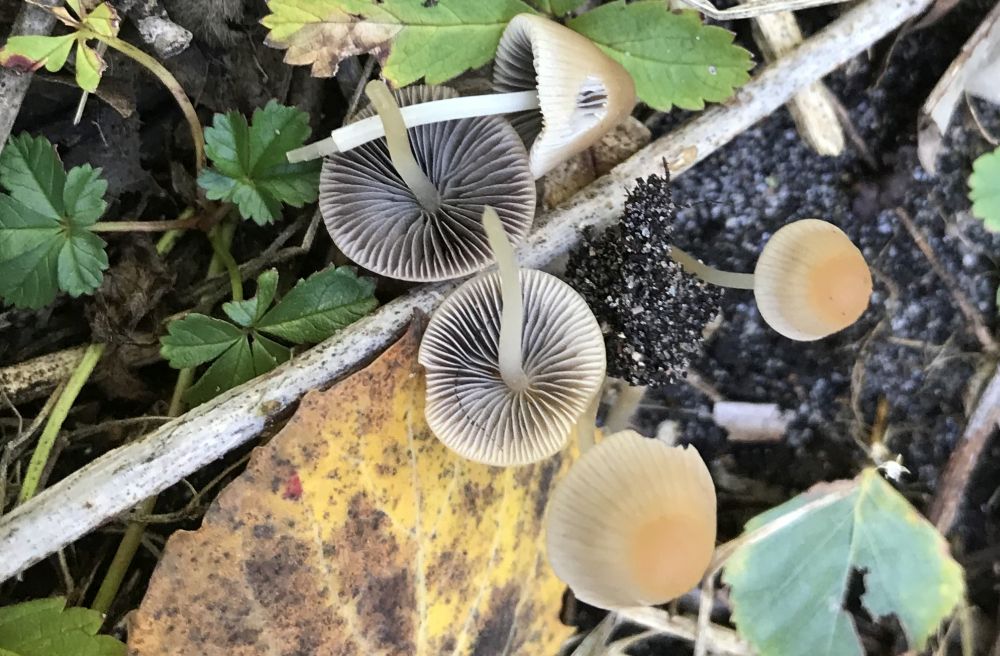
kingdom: Fungi
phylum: Basidiomycota
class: Agaricomycetes
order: Agaricales
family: Psathyrellaceae
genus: Psathyrella
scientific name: Psathyrella
